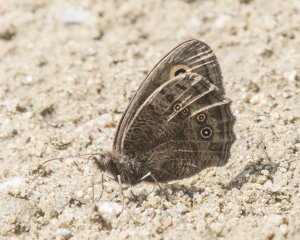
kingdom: Animalia
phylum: Arthropoda
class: Insecta
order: Lepidoptera
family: Nymphalidae
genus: Cercyonis
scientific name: Cercyonis pegala
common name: Common Wood-Nymph
